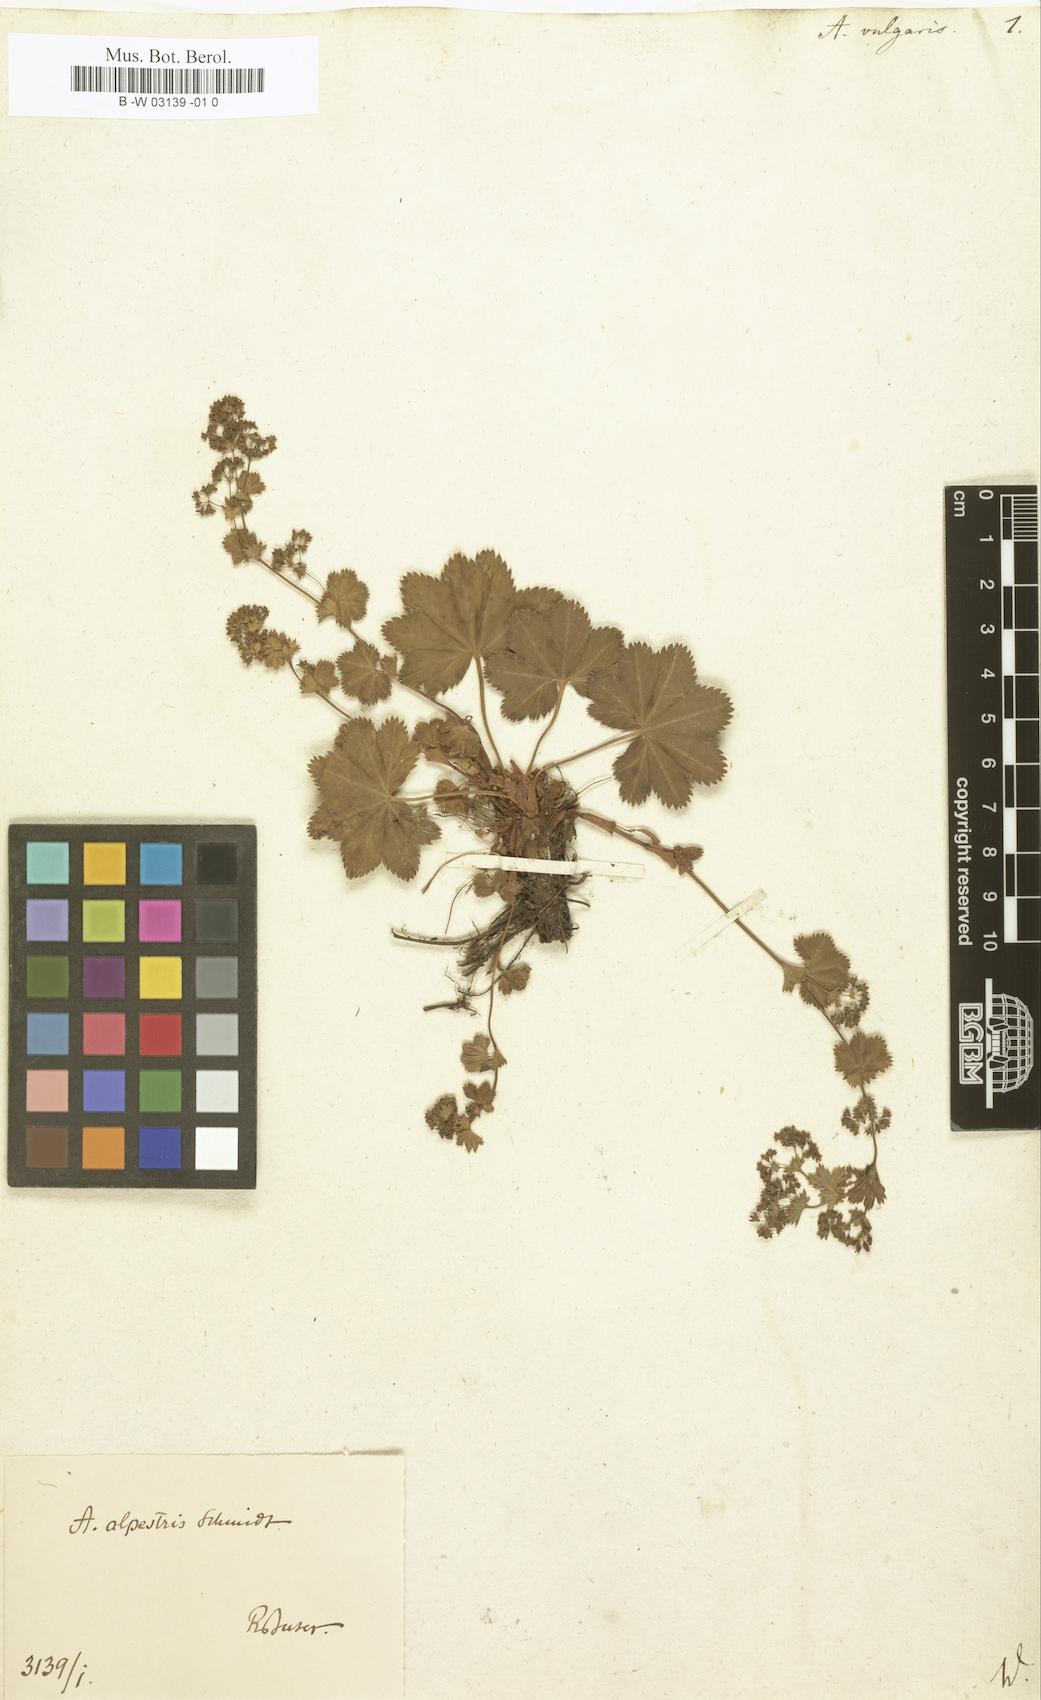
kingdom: Plantae
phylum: Tracheophyta
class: Magnoliopsida
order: Rosales
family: Rosaceae
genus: Alchemilla
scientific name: Alchemilla vulgaris
